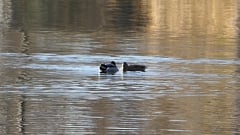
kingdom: Animalia
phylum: Chordata
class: Aves
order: Anseriformes
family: Anatidae
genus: Anas
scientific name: Anas platyrhynchos
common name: Mallard
